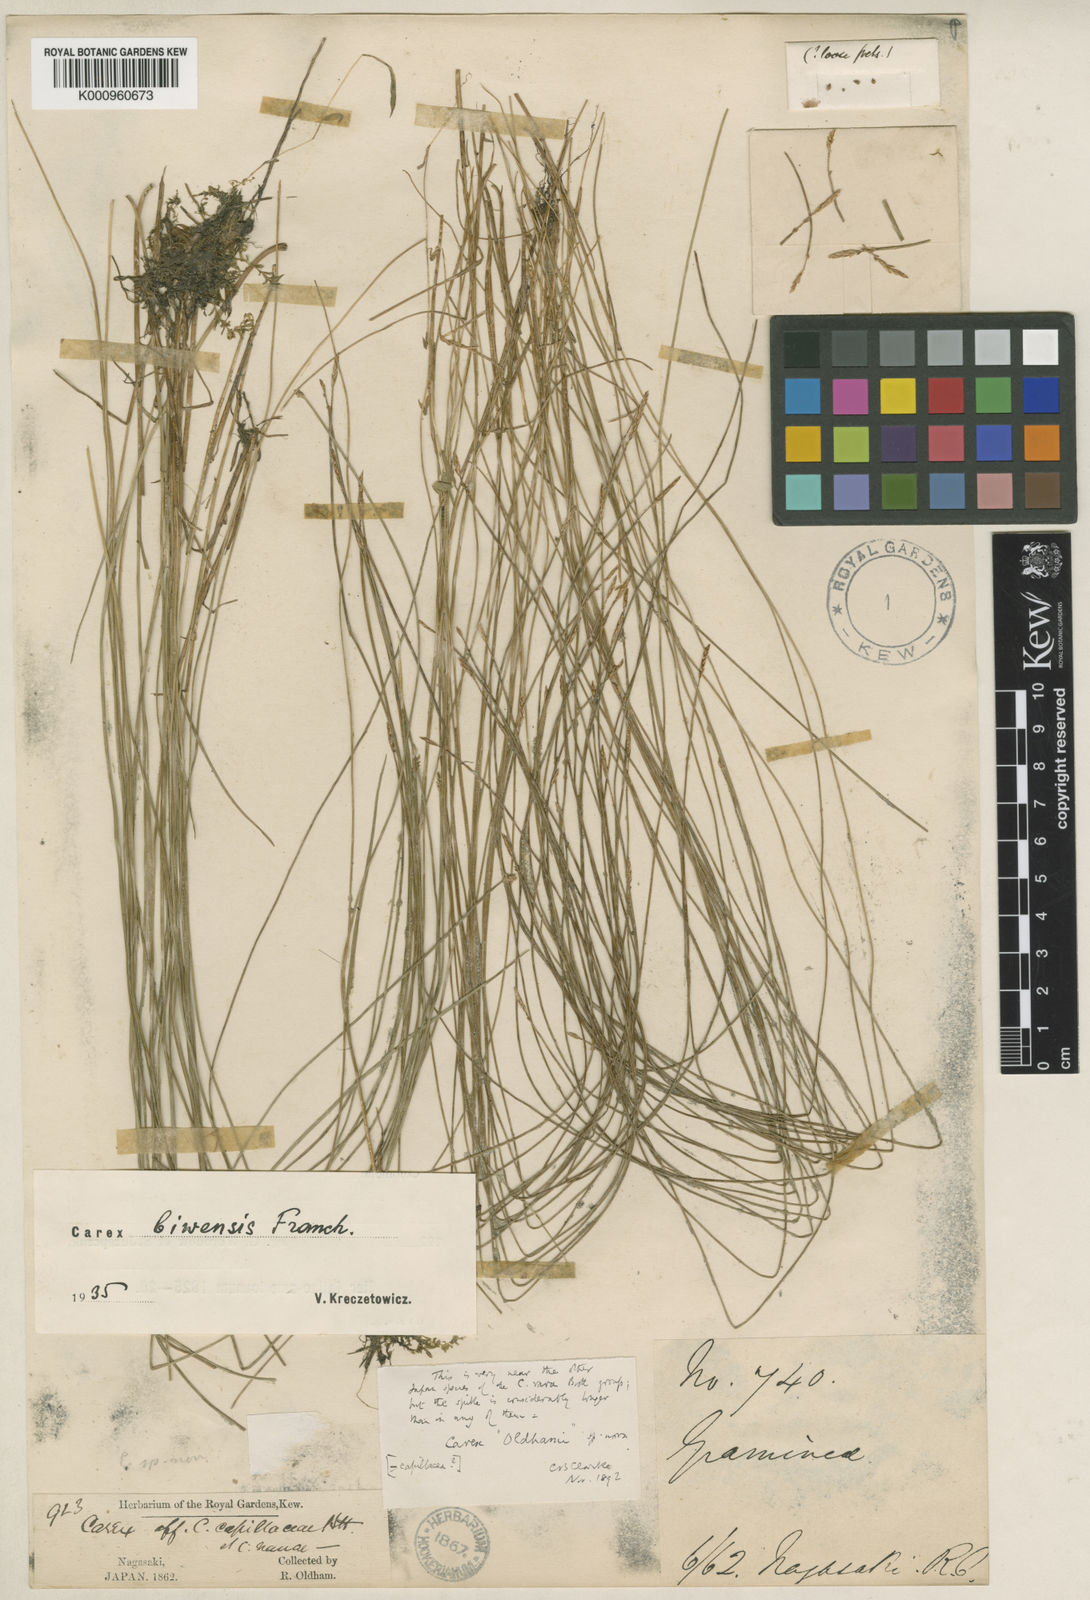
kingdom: Plantae
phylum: Tracheophyta
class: Liliopsida
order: Poales
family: Cyperaceae
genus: Carex
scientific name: Carex rara
